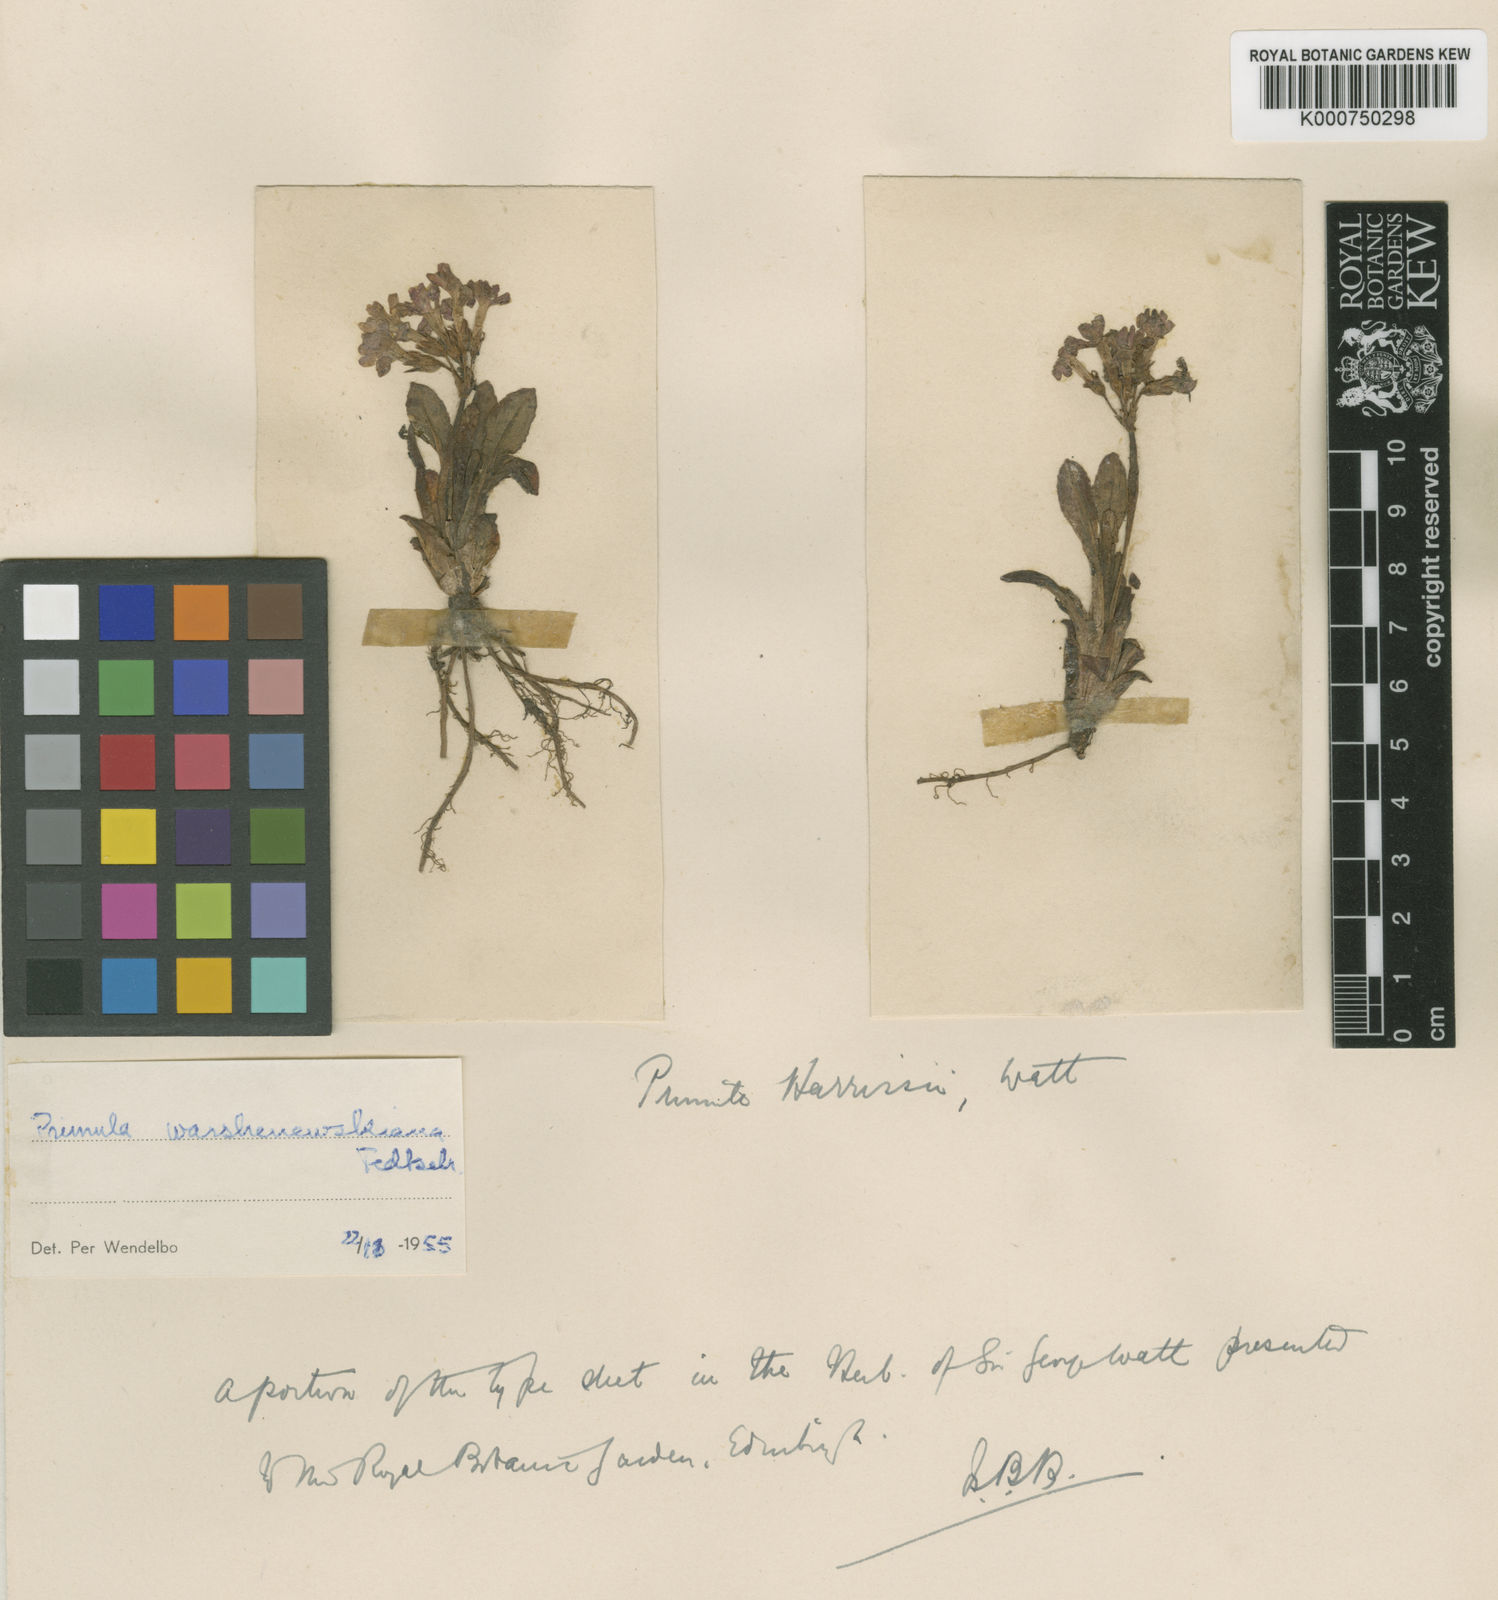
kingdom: Plantae
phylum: Tracheophyta
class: Magnoliopsida
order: Ericales
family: Primulaceae
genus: Primula
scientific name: Primula
